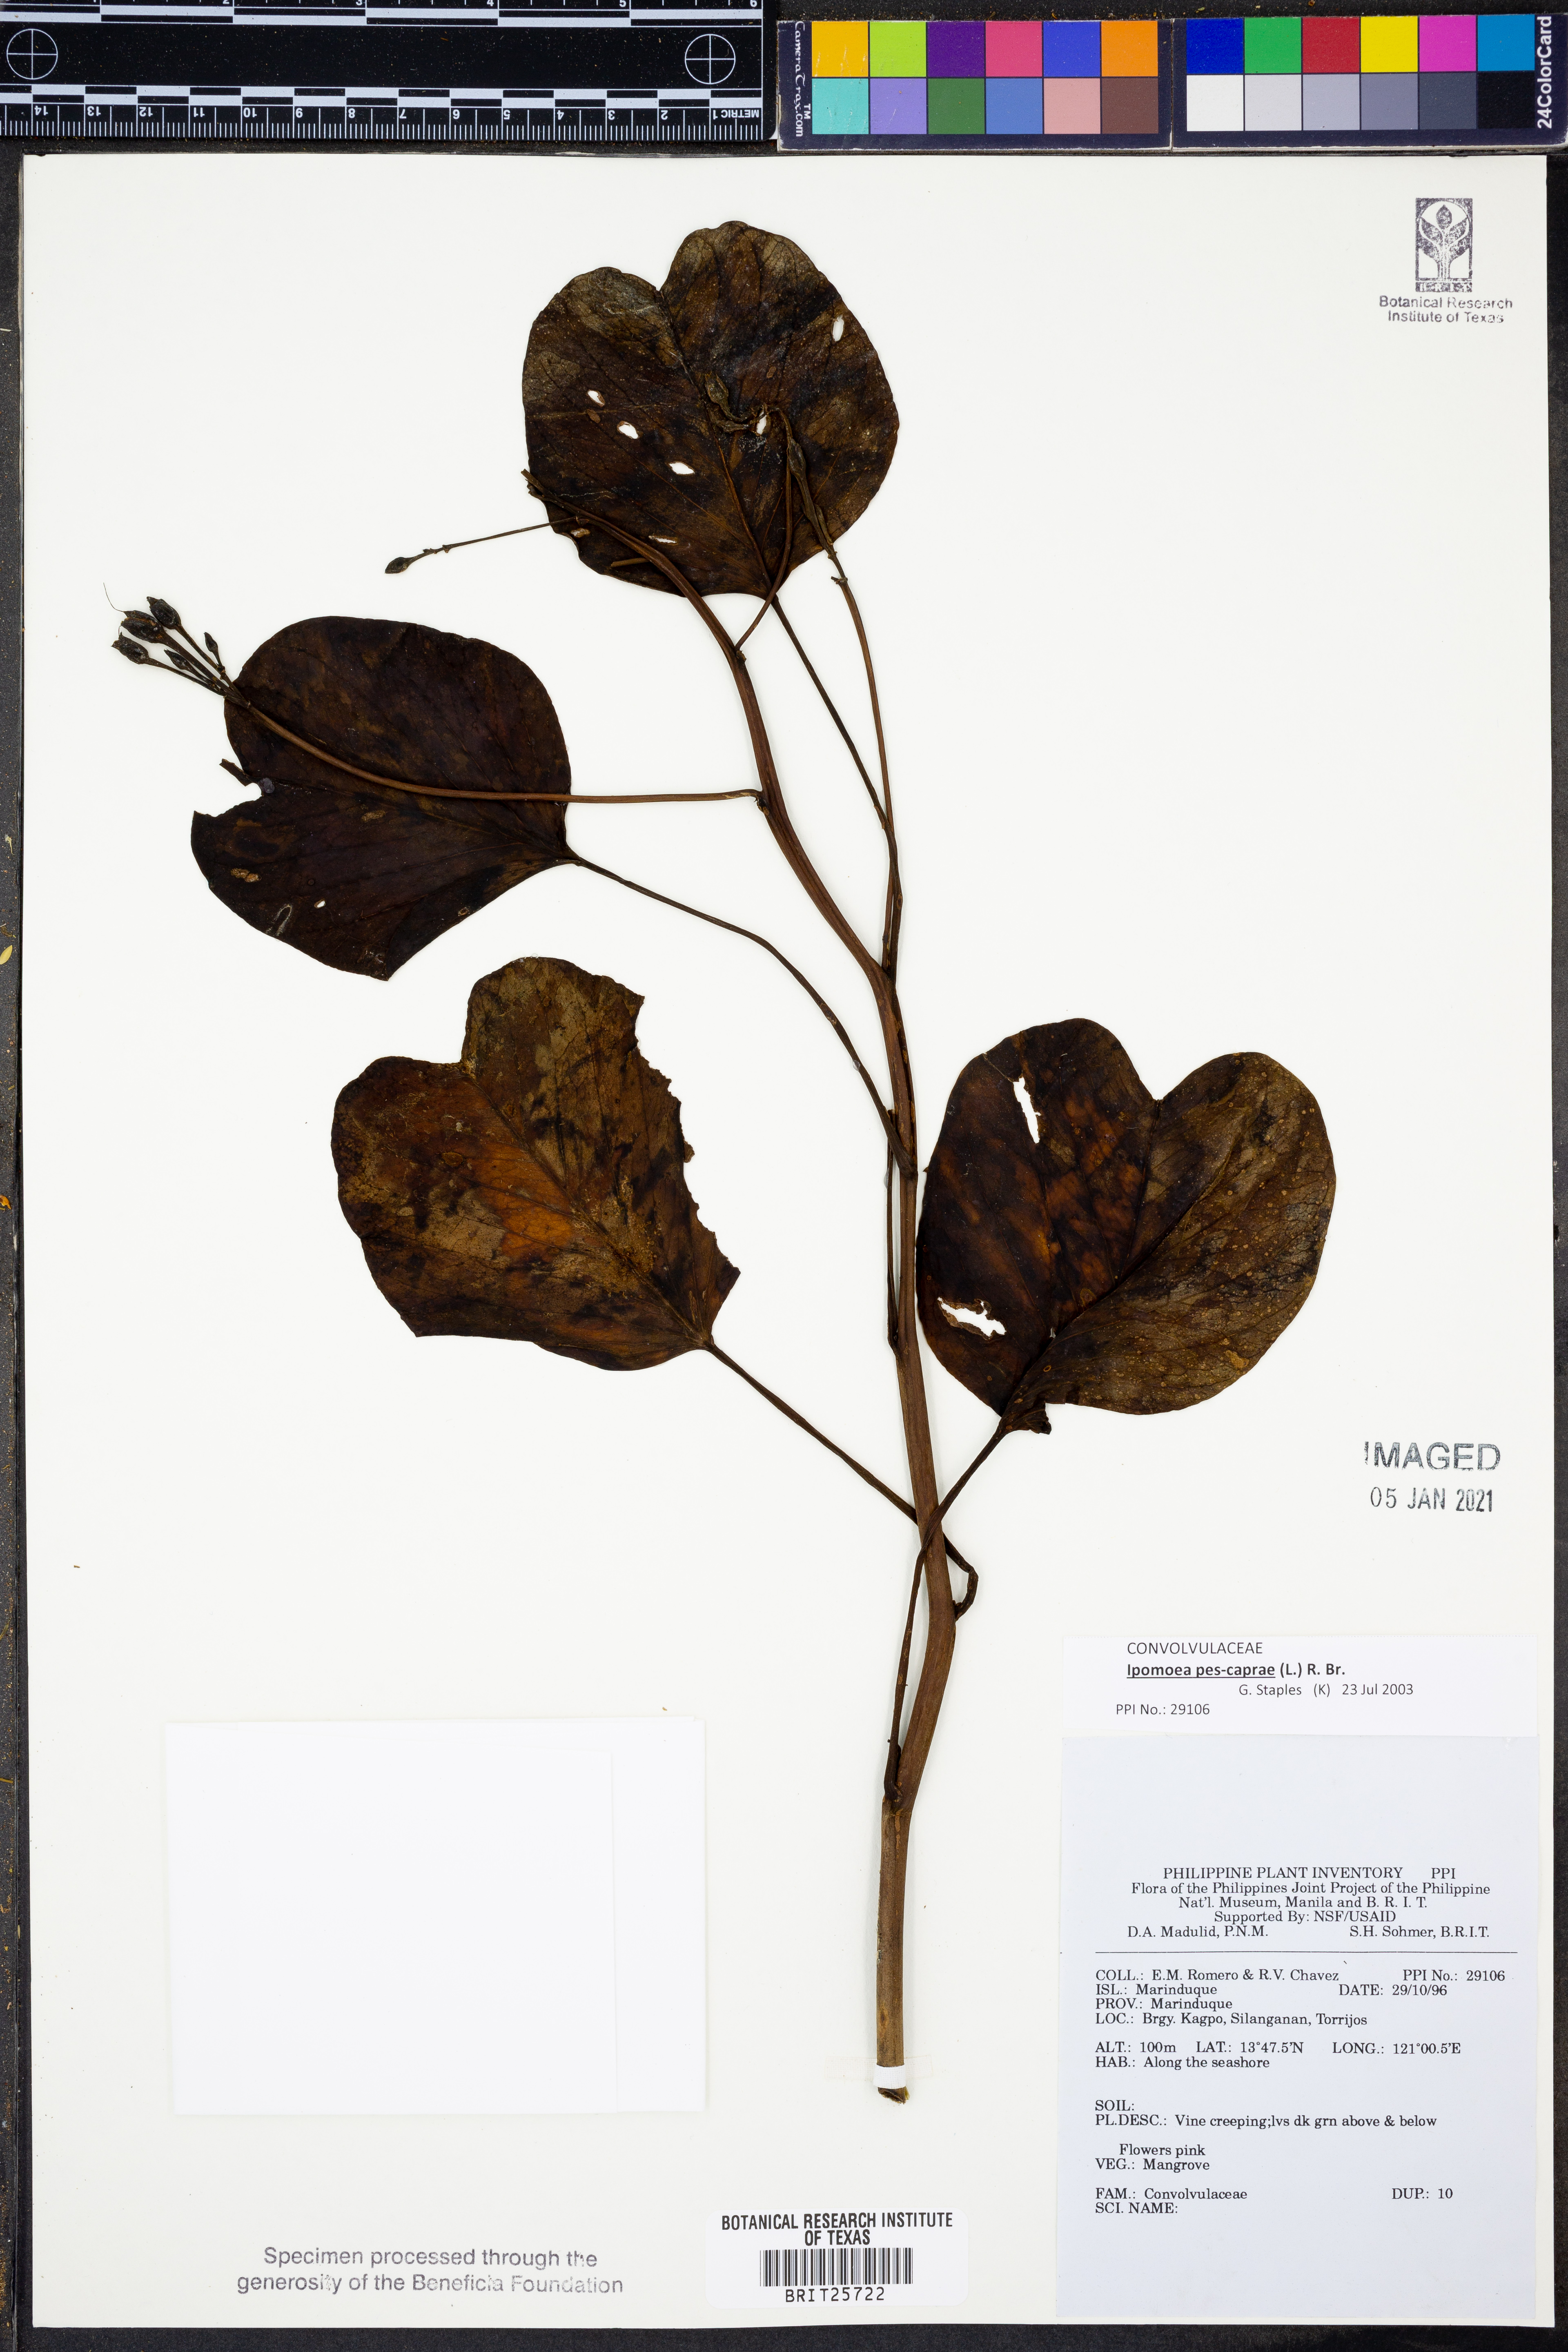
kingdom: Plantae
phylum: Tracheophyta
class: Magnoliopsida
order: Solanales
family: Convolvulaceae
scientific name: Convolvulaceae
